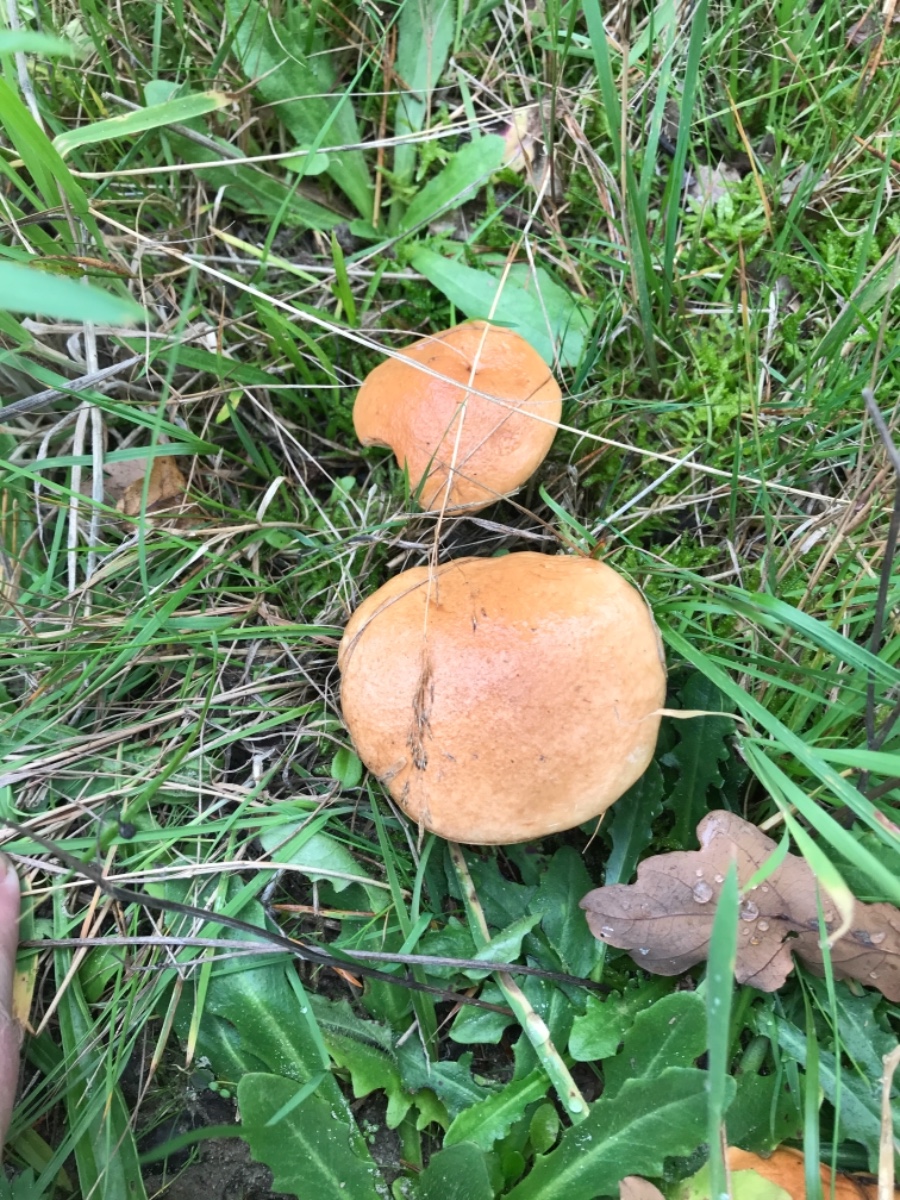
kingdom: Fungi
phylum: Basidiomycota
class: Agaricomycetes
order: Boletales
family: Suillaceae
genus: Suillus
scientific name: Suillus bovinus
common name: grovporet slimrørhat
